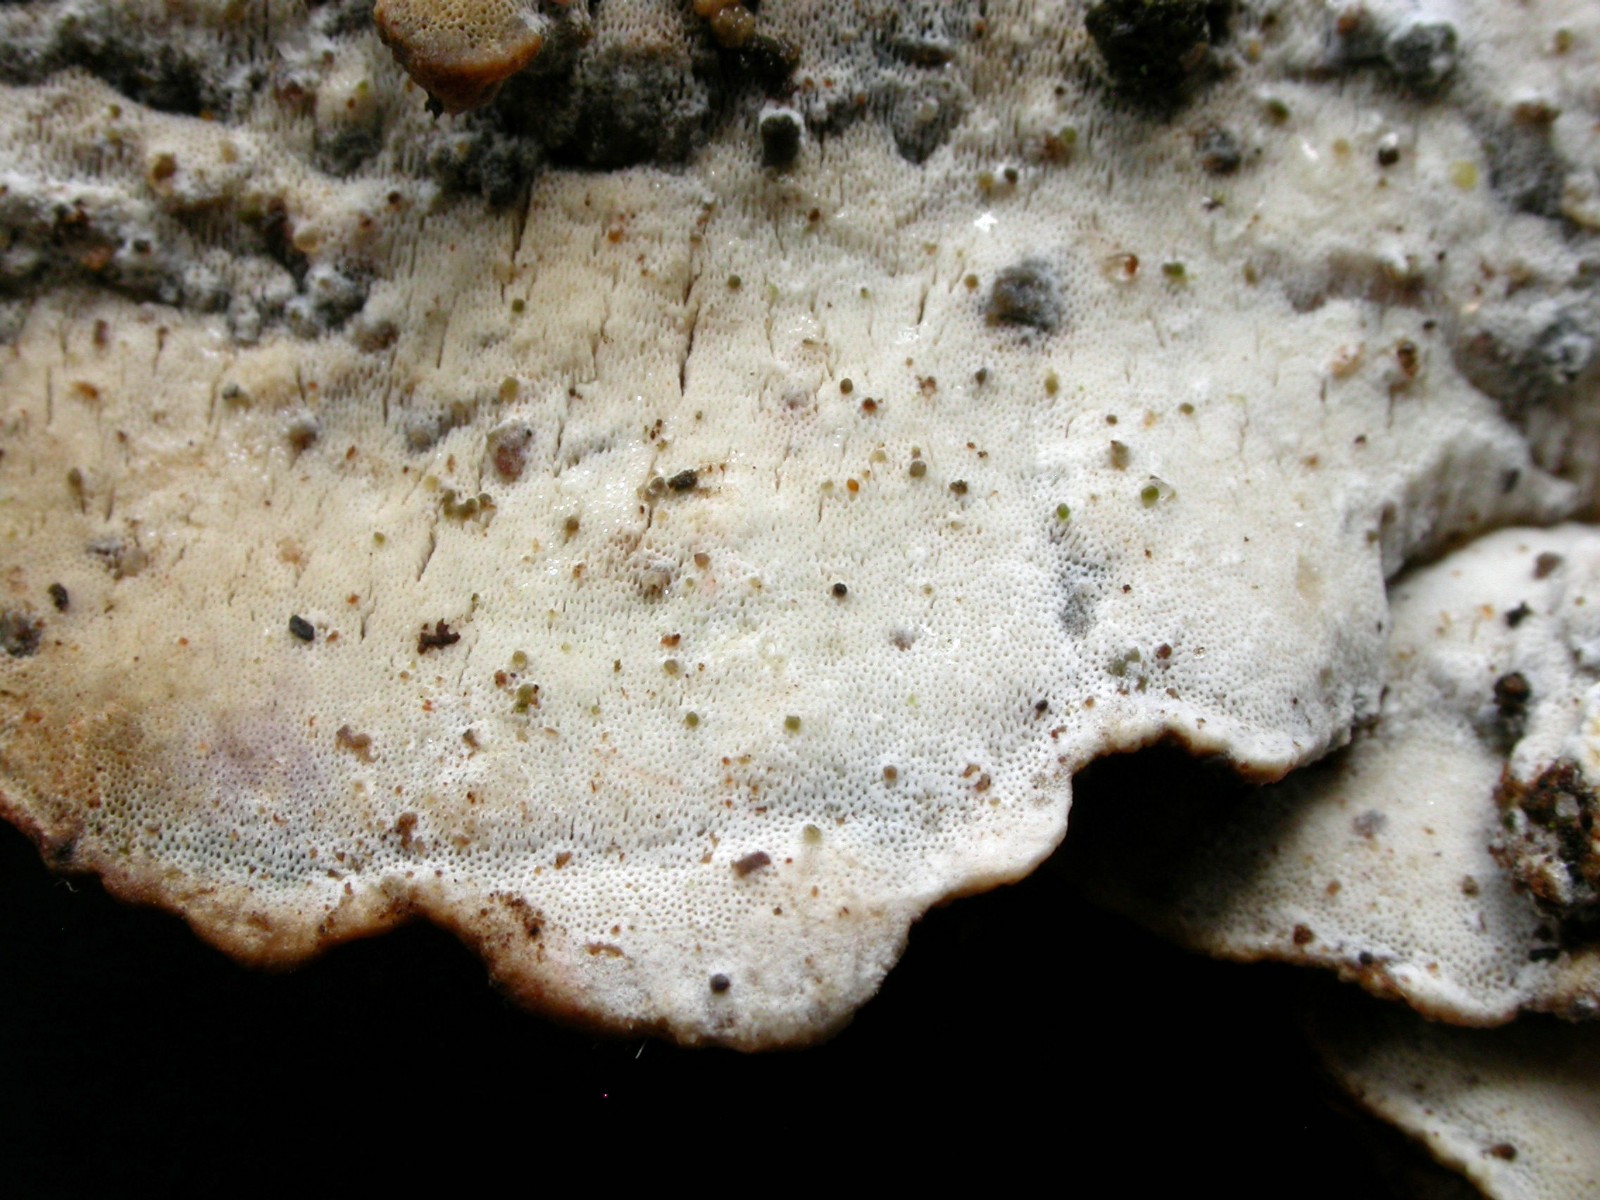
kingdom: Fungi
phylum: Basidiomycota
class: Agaricomycetes
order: Polyporales
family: Incrustoporiaceae
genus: Skeletocutis
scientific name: Skeletocutis nemoralis
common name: stor krystalporesvamp
